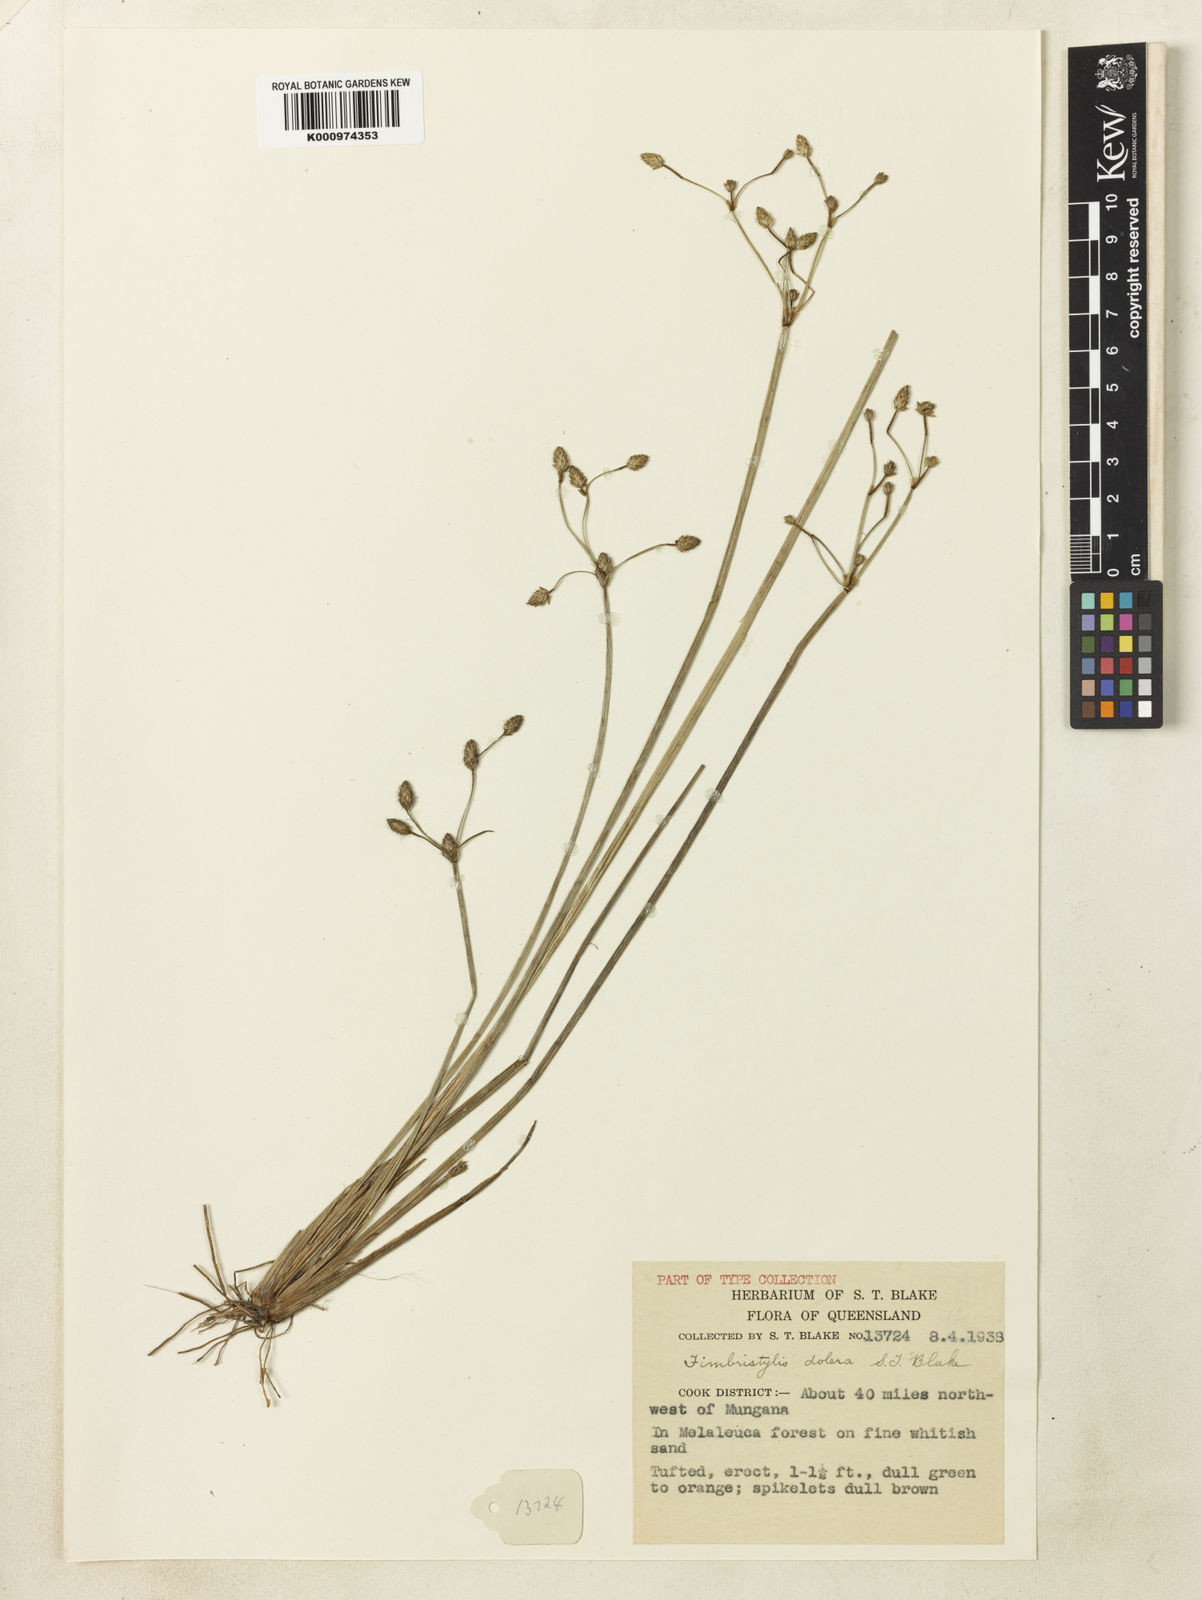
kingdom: Plantae
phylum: Tracheophyta
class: Liliopsida
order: Poales
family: Cyperaceae
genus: Fimbristylis
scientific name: Fimbristylis dolera
